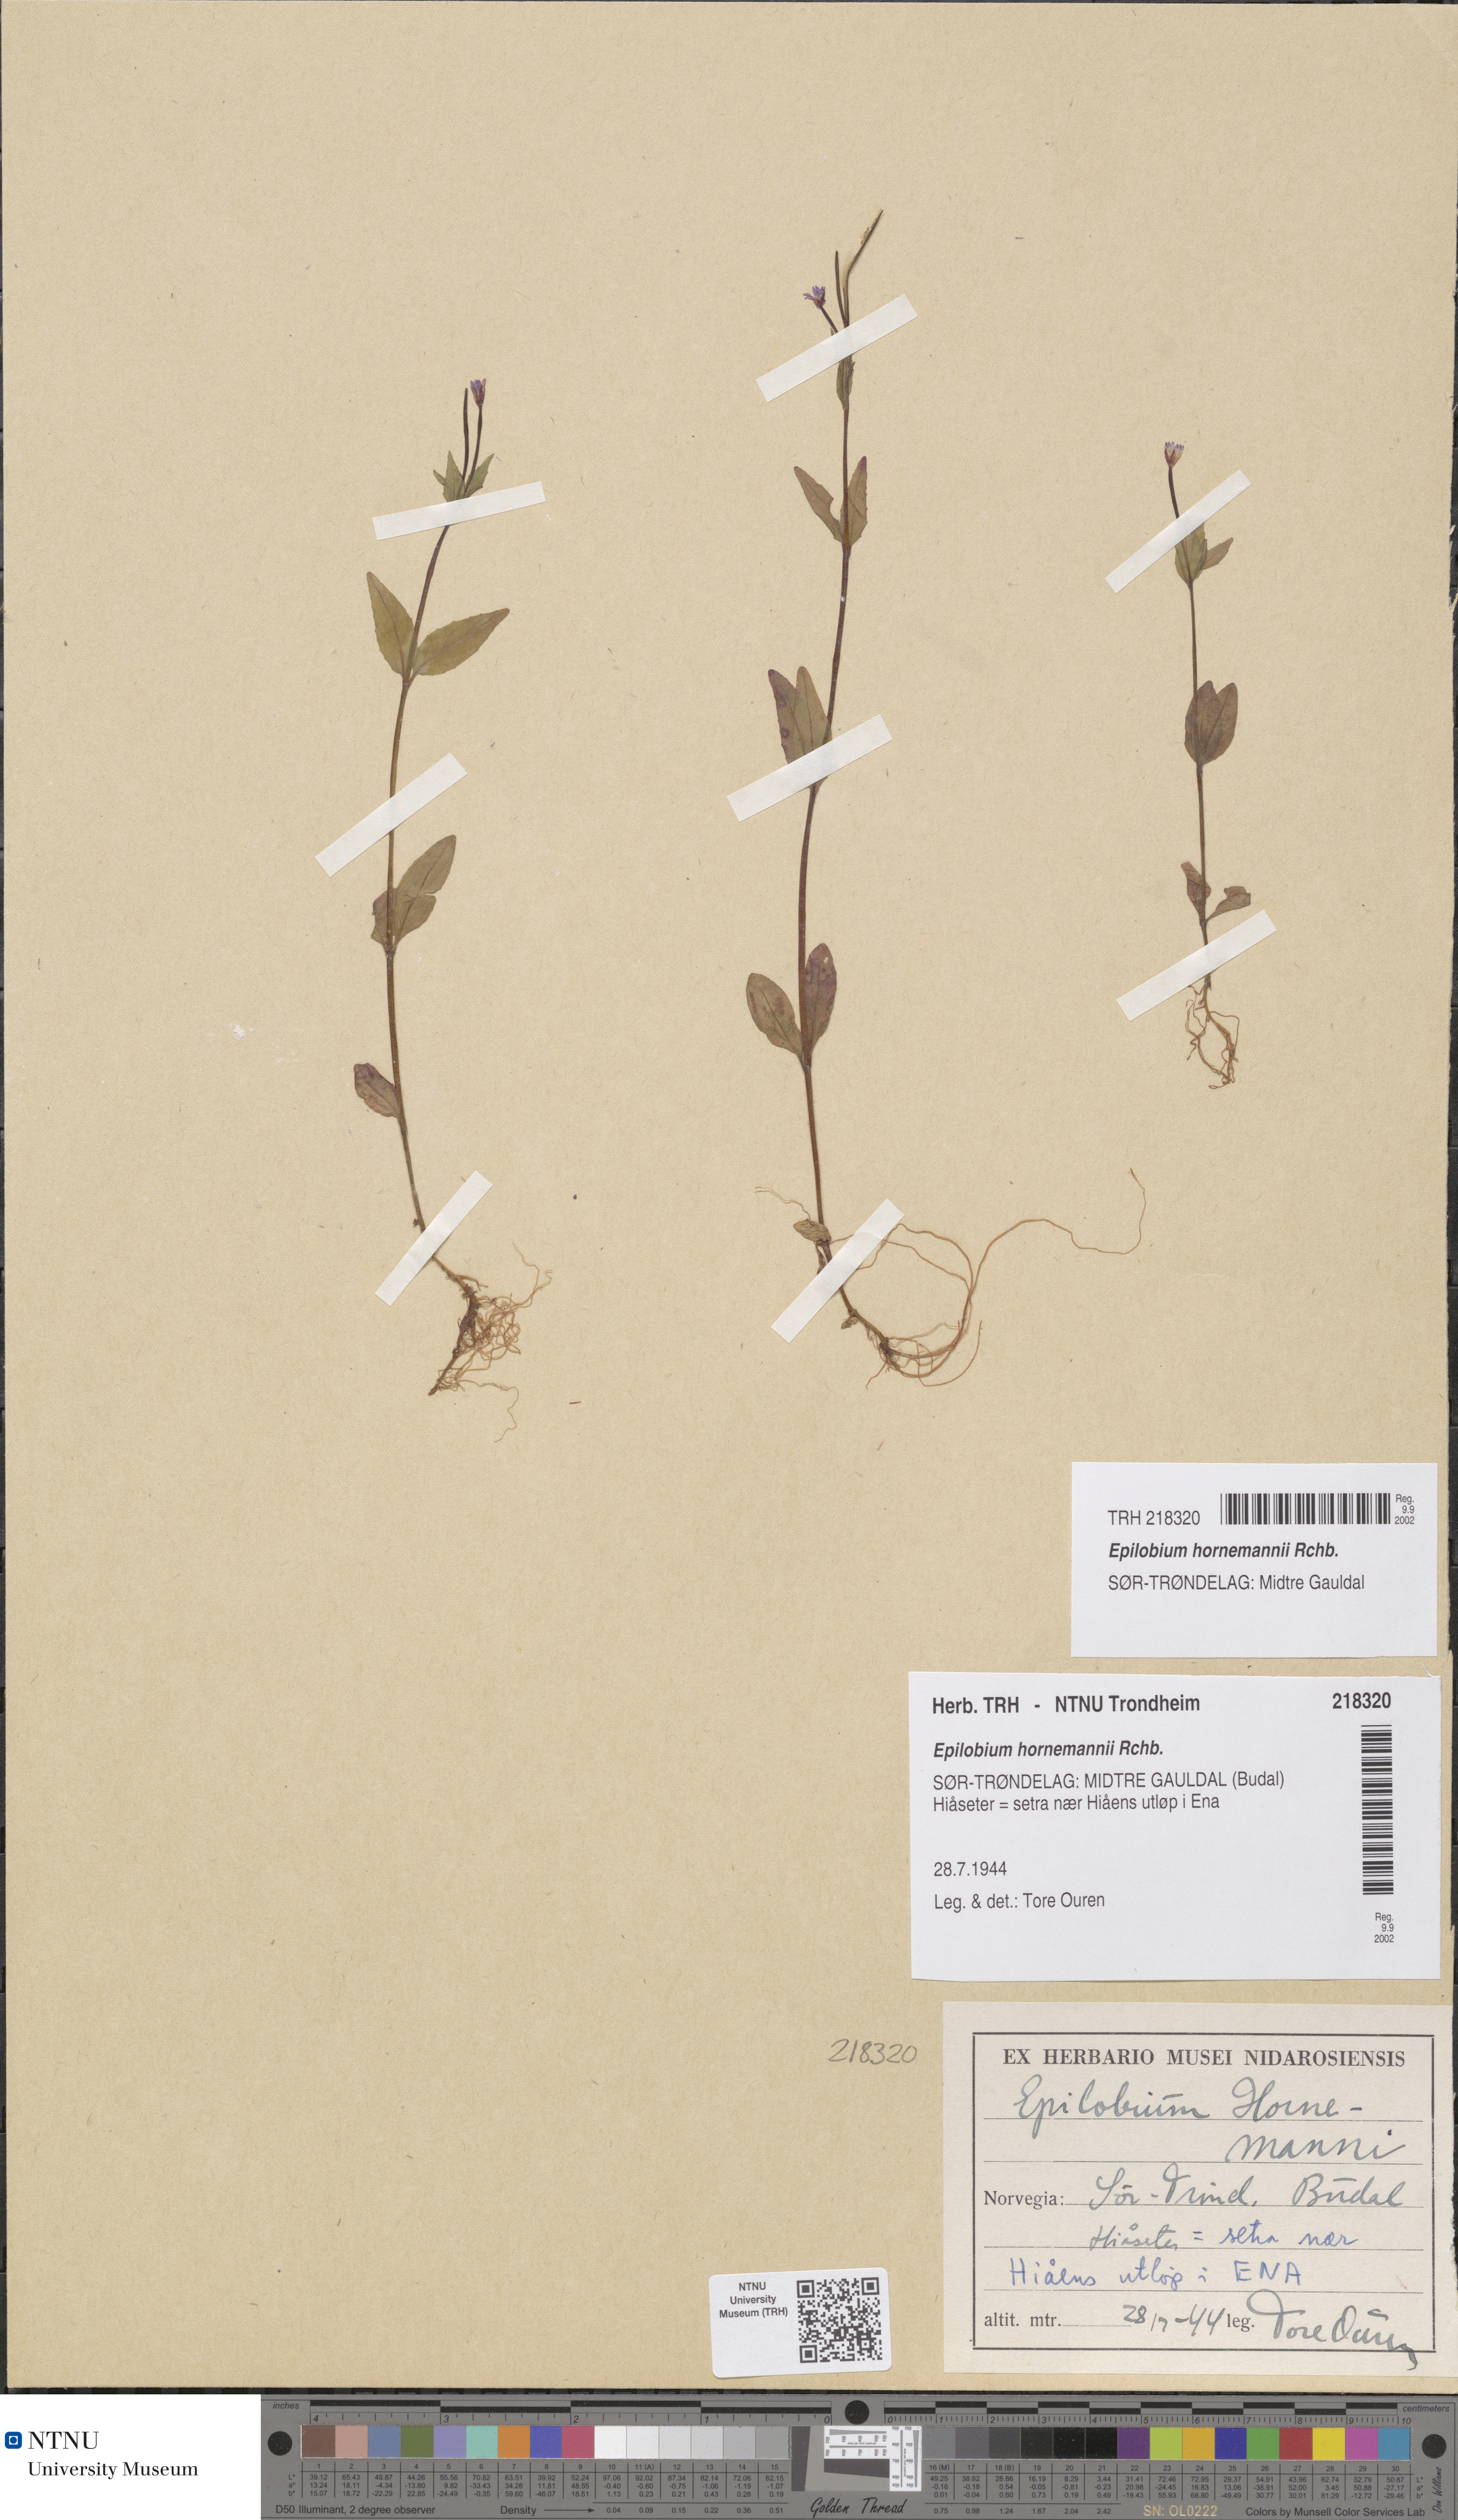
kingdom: Plantae
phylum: Tracheophyta
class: Magnoliopsida
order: Myrtales
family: Onagraceae
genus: Epilobium
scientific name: Epilobium hornemannii
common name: Hornemann's willowherb
